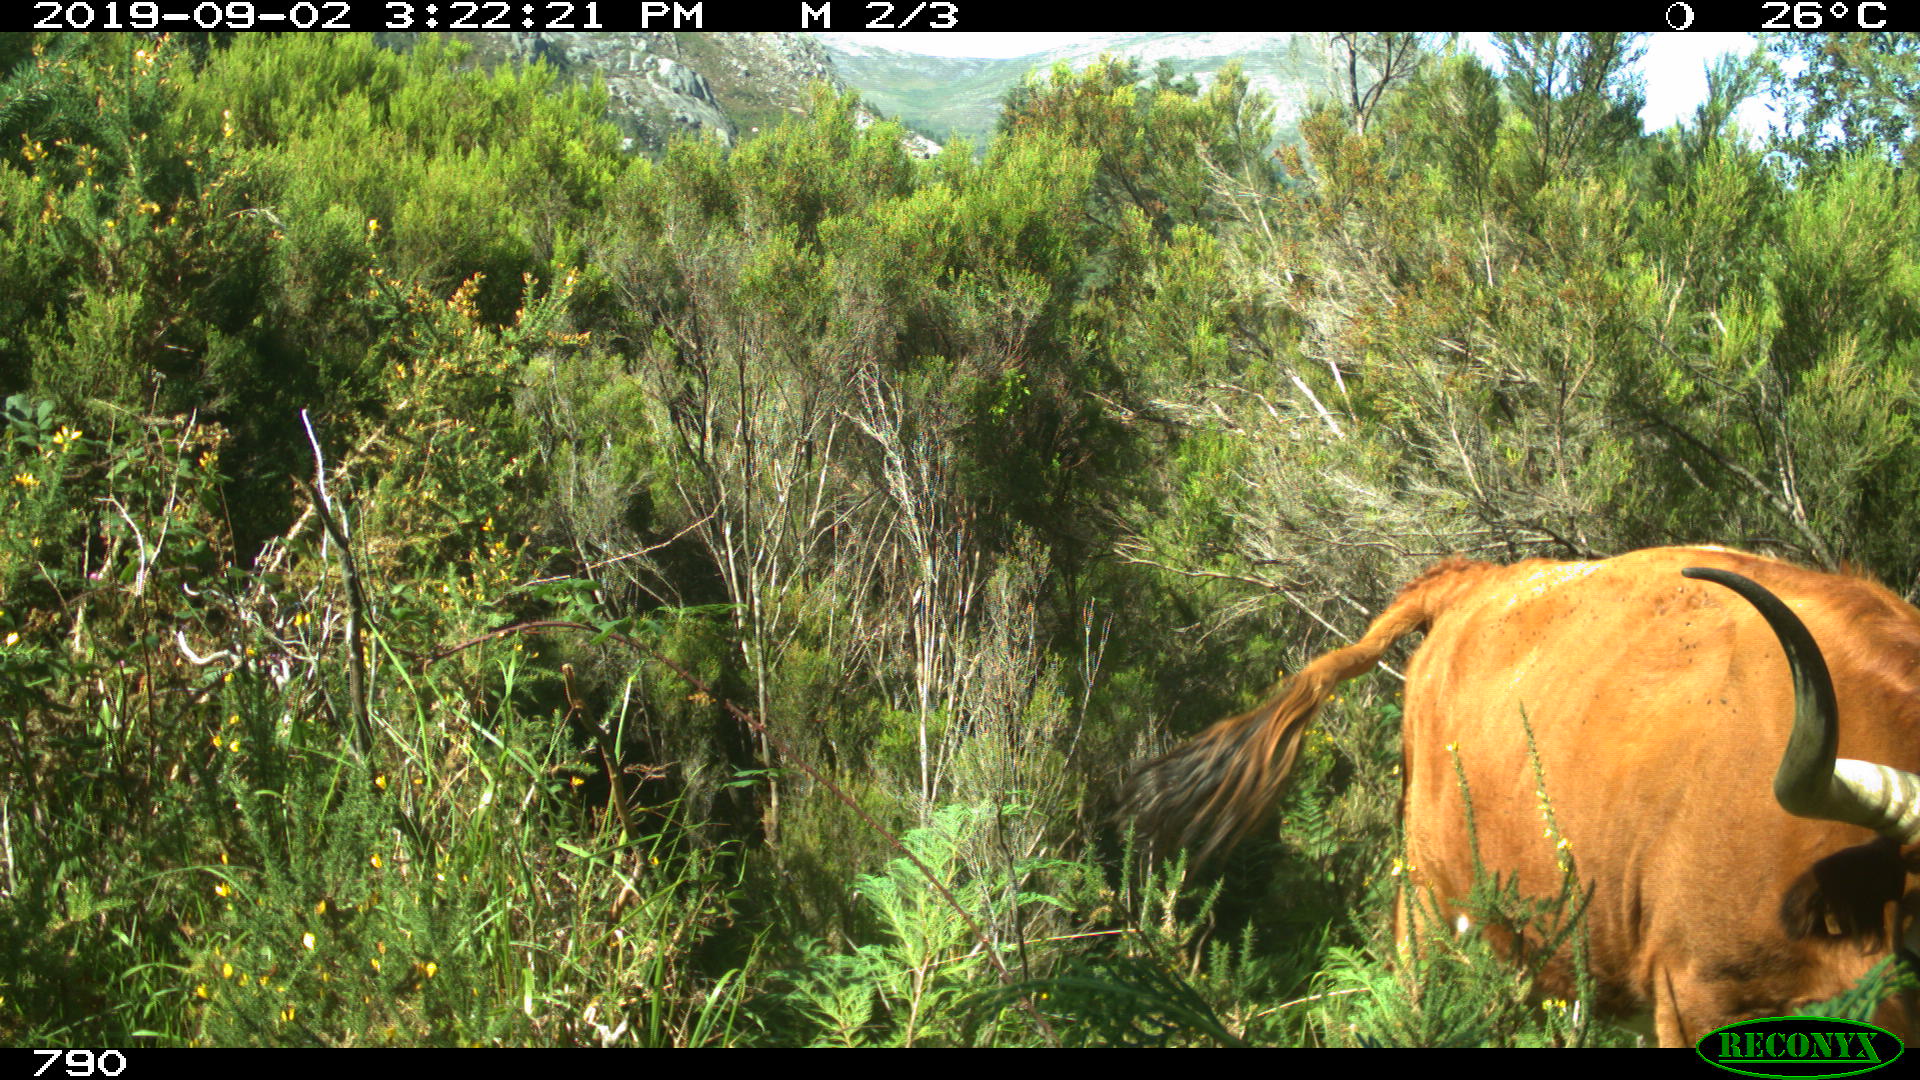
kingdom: Animalia
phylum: Chordata
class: Mammalia
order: Artiodactyla
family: Bovidae
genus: Bos
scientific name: Bos taurus
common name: Domesticated cattle
